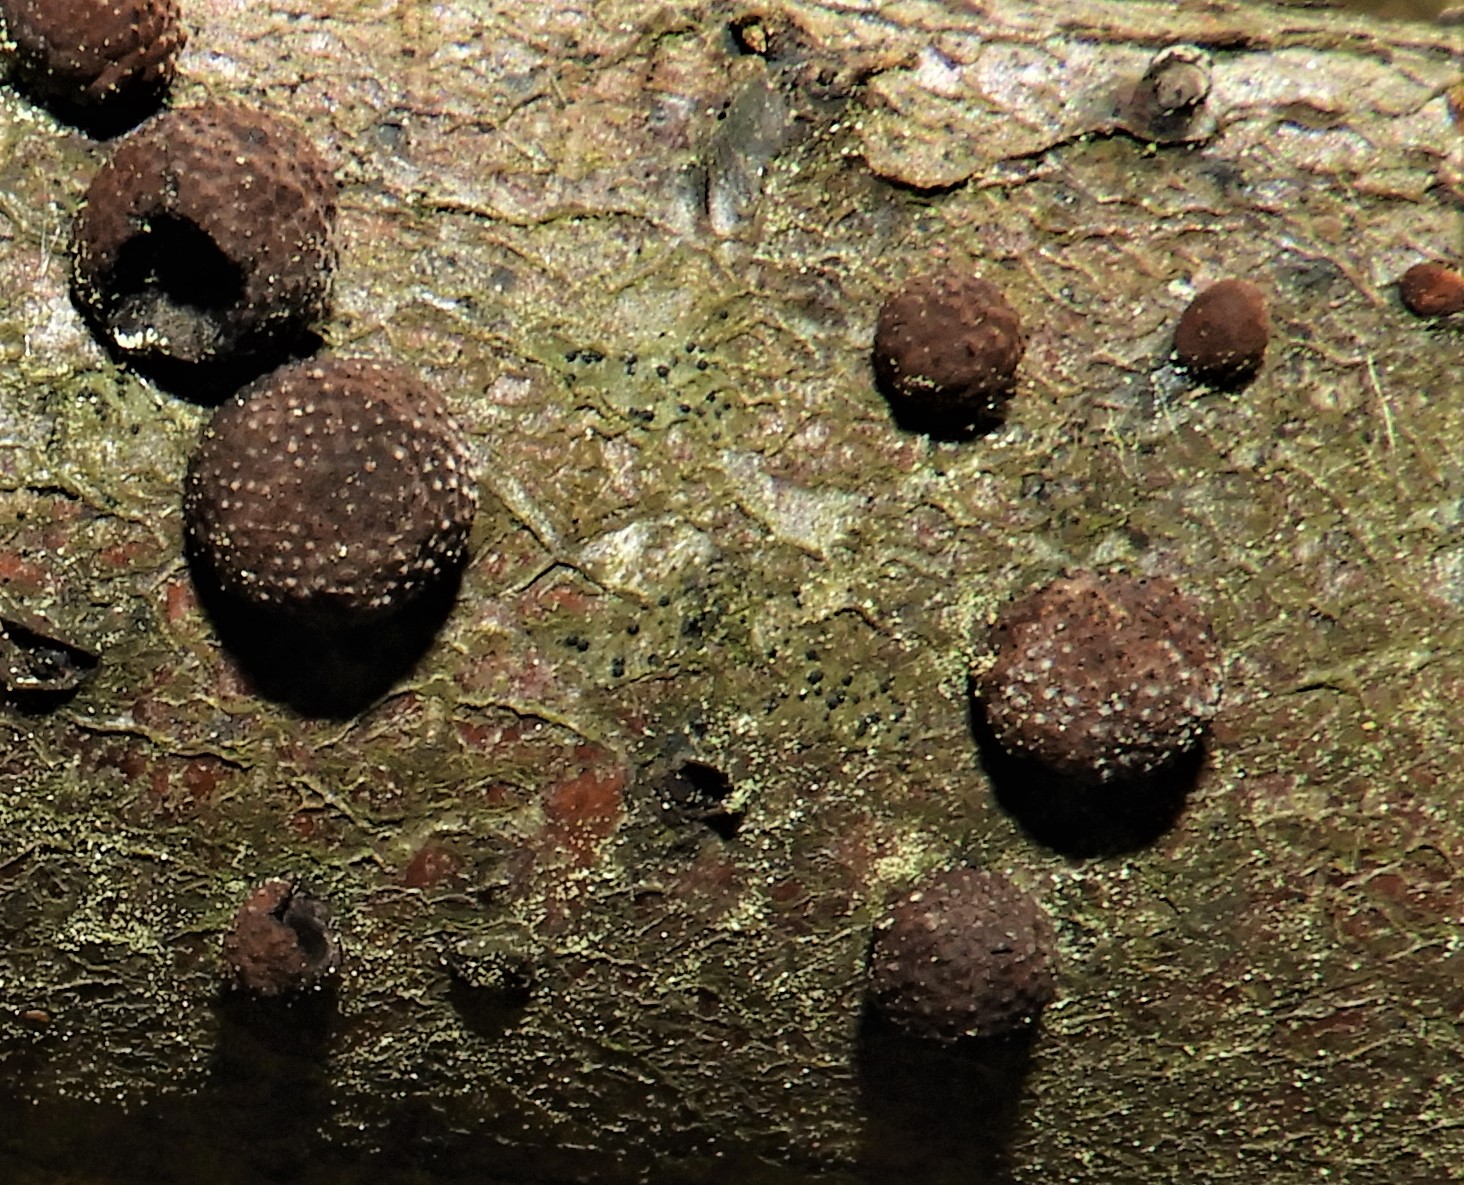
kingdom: Fungi
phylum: Ascomycota
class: Sordariomycetes
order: Xylariales
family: Hypoxylaceae
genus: Hypoxylon
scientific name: Hypoxylon fragiforme
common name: kuljordbær
